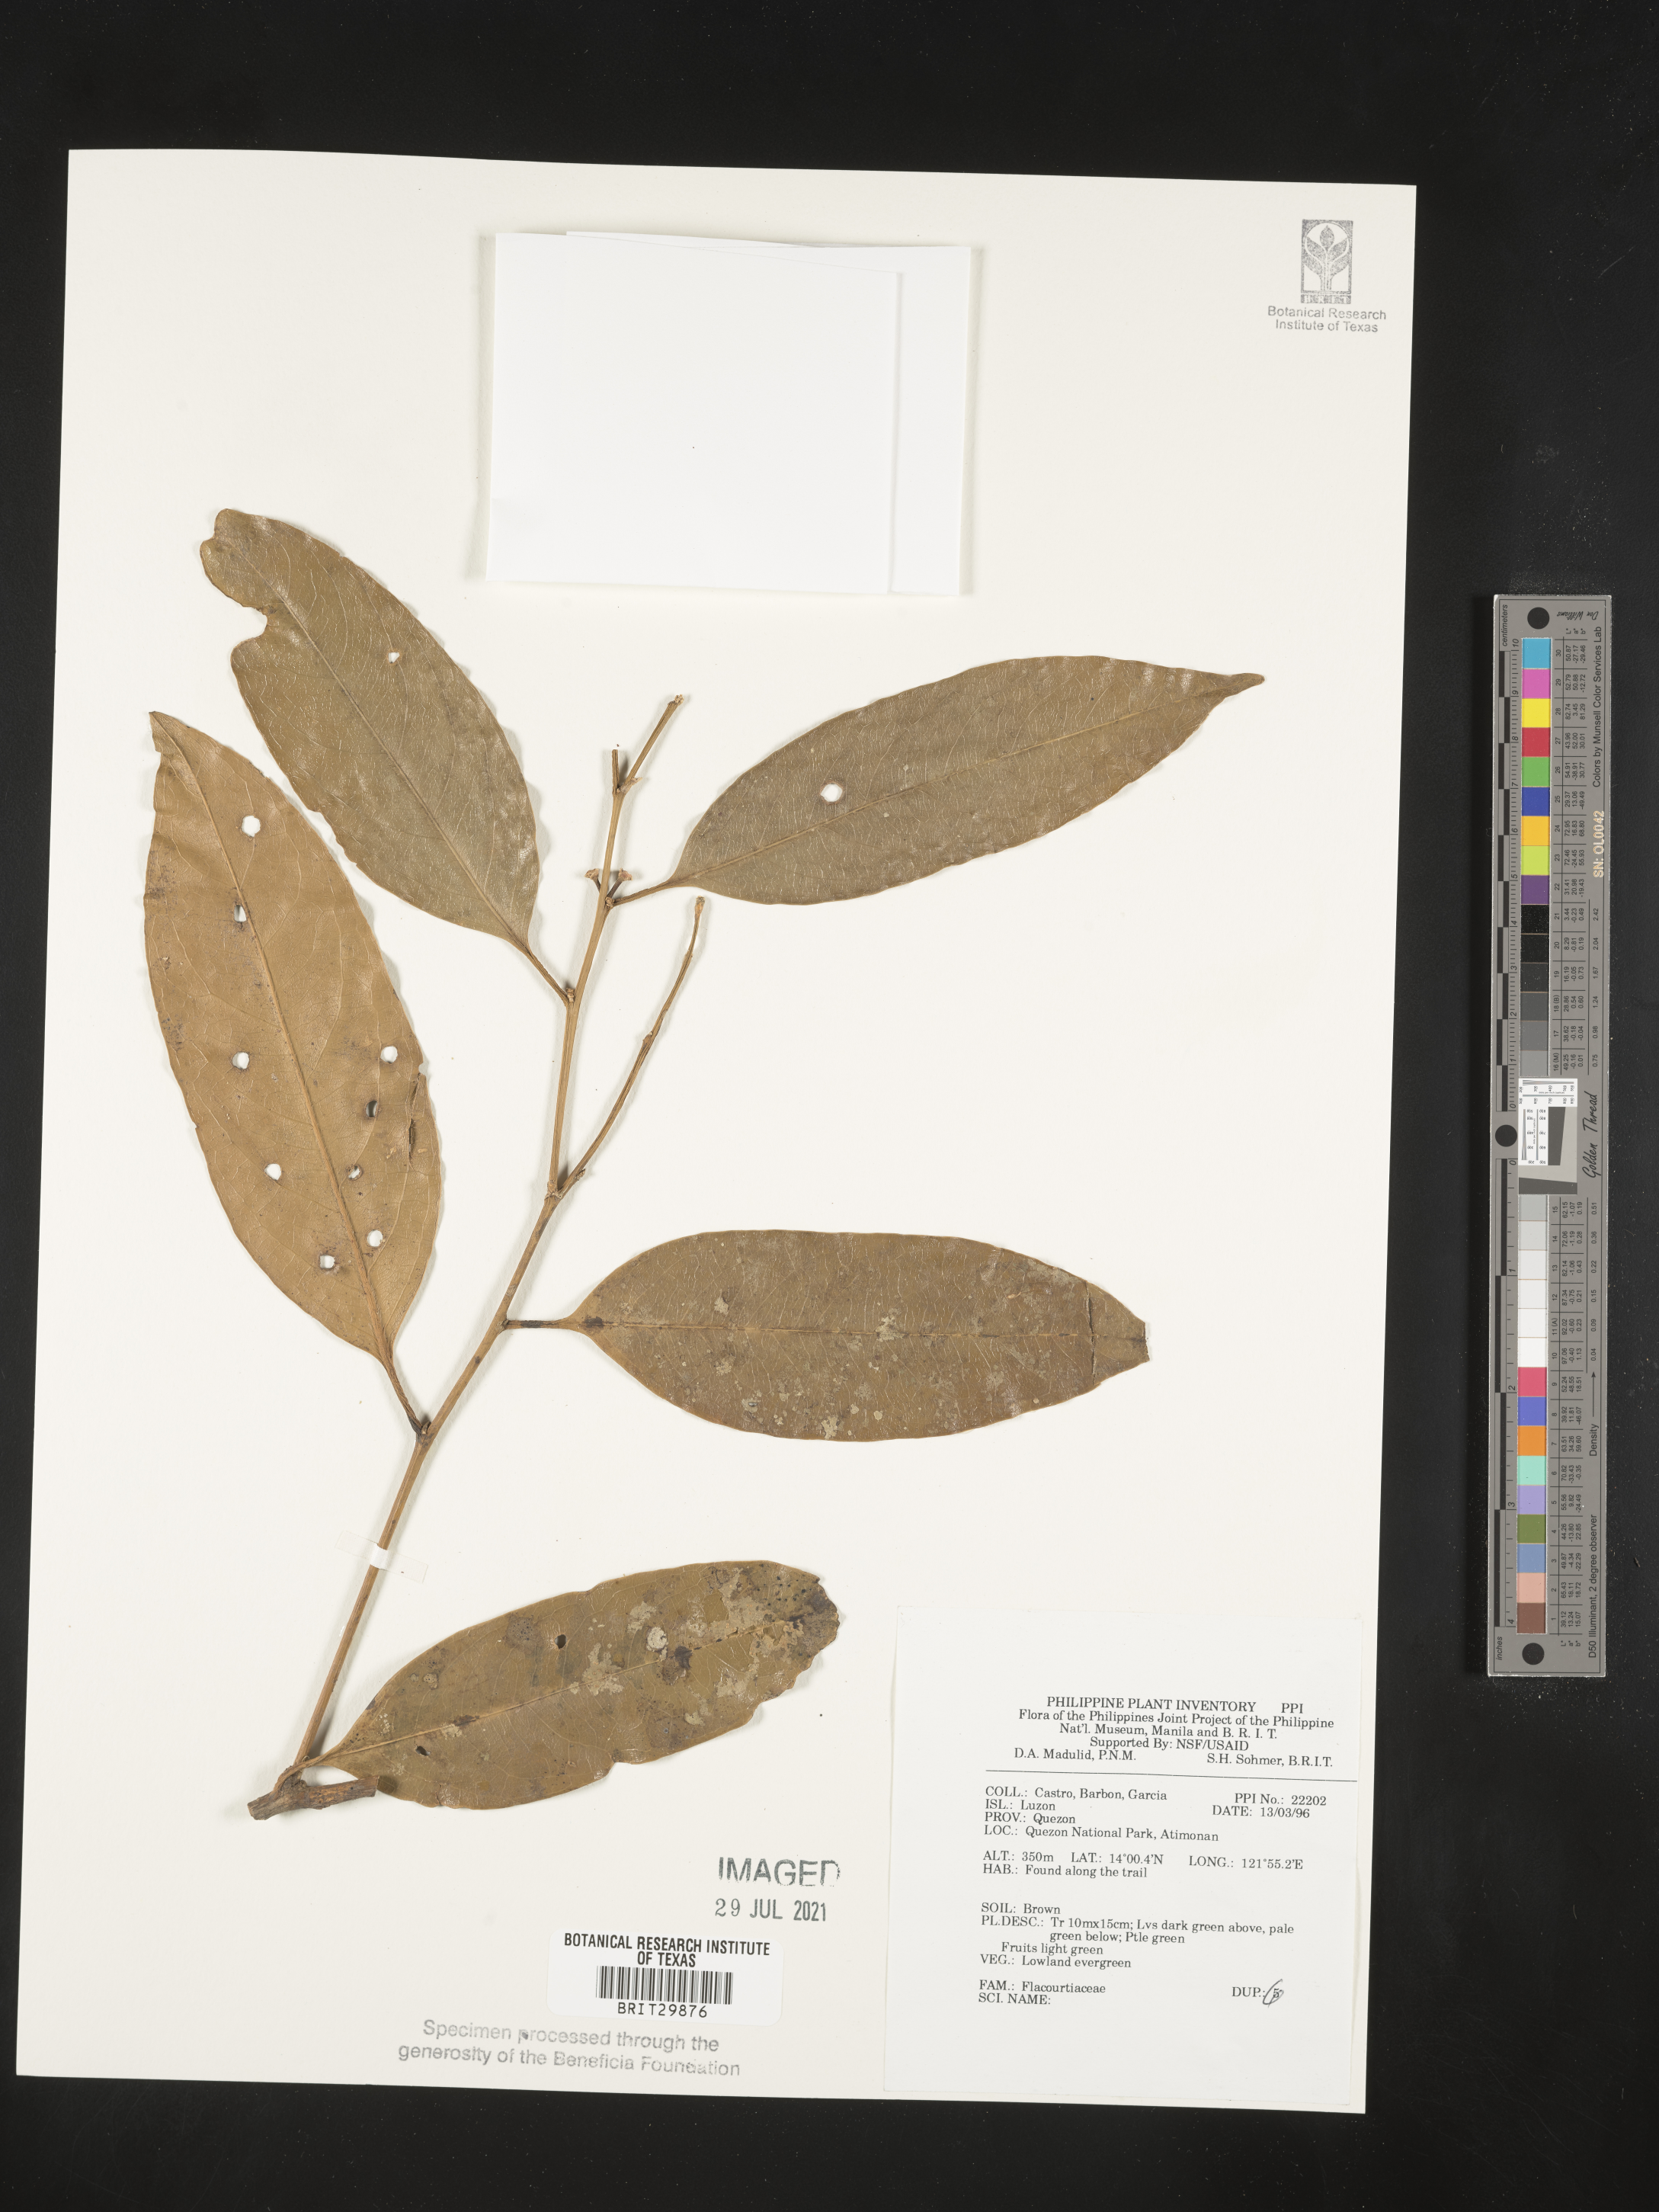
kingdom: Plantae
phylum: Tracheophyta
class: Magnoliopsida
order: Malpighiales
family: Flacourtiaceae
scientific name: Flacourtiaceae
